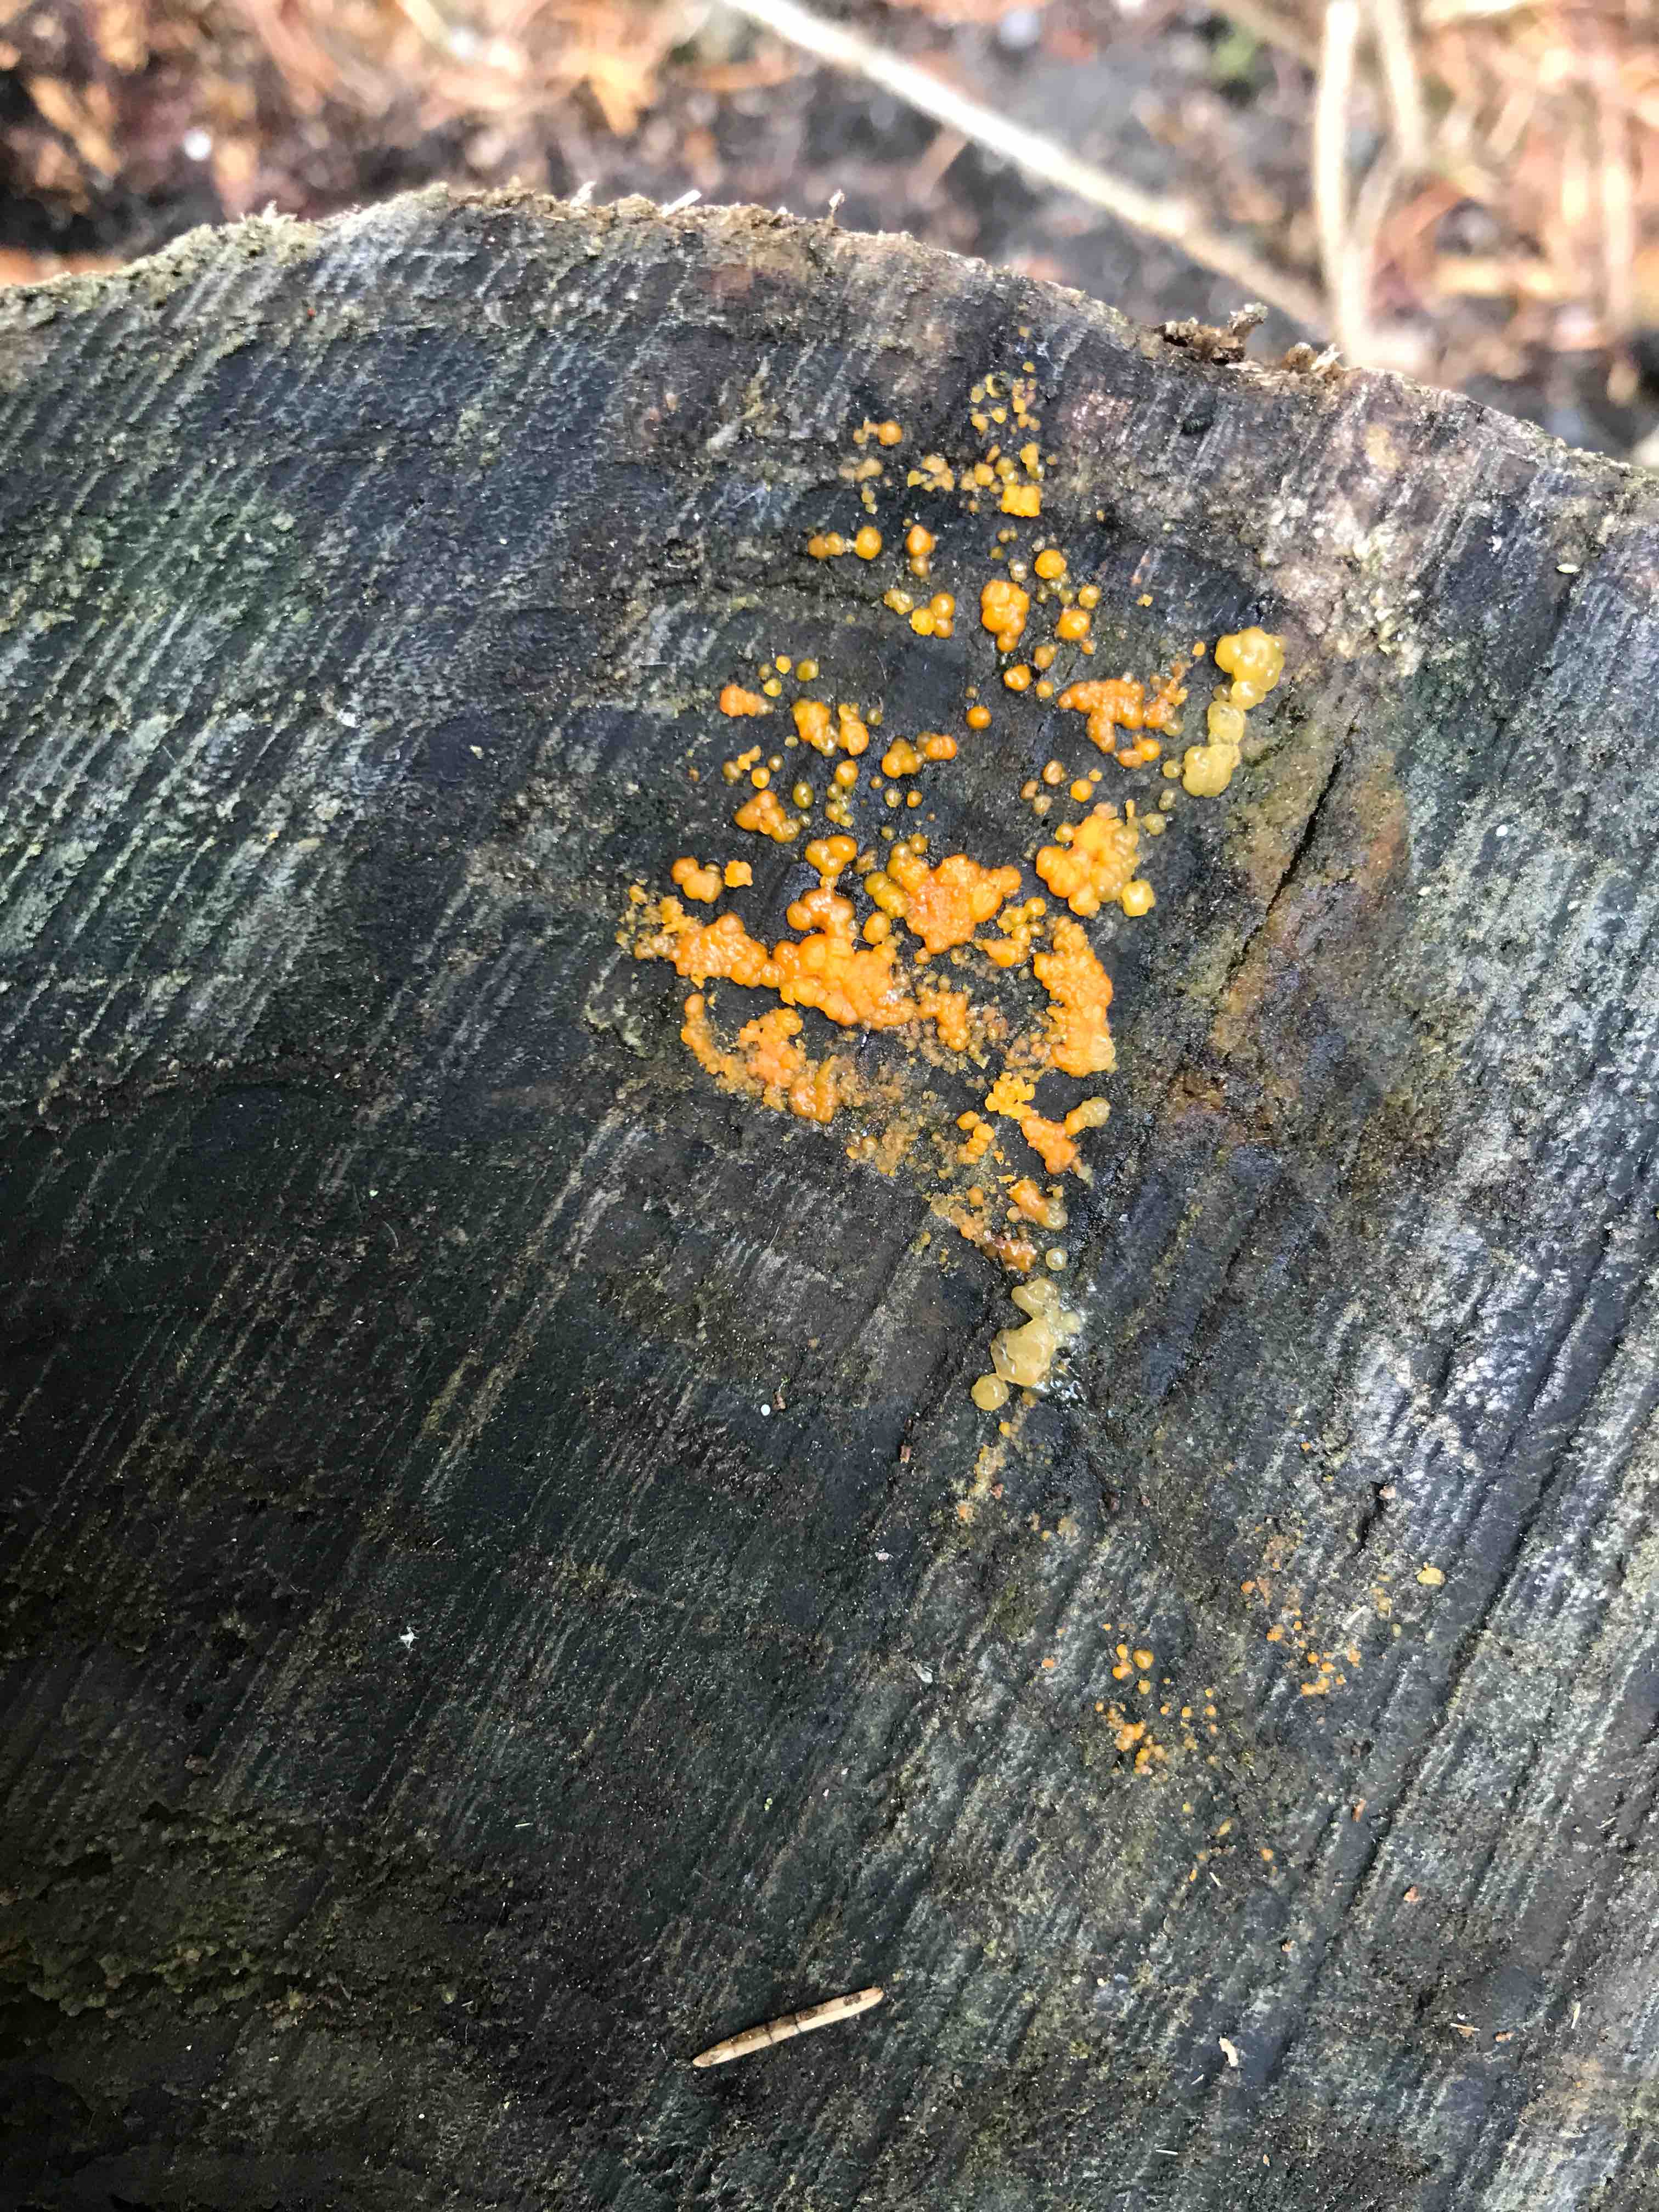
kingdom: Fungi
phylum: Basidiomycota
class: Dacrymycetes
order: Dacrymycetales
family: Dacrymycetaceae
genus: Dacrymyces
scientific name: Dacrymyces stillatus
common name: almindelig tåresvamp
